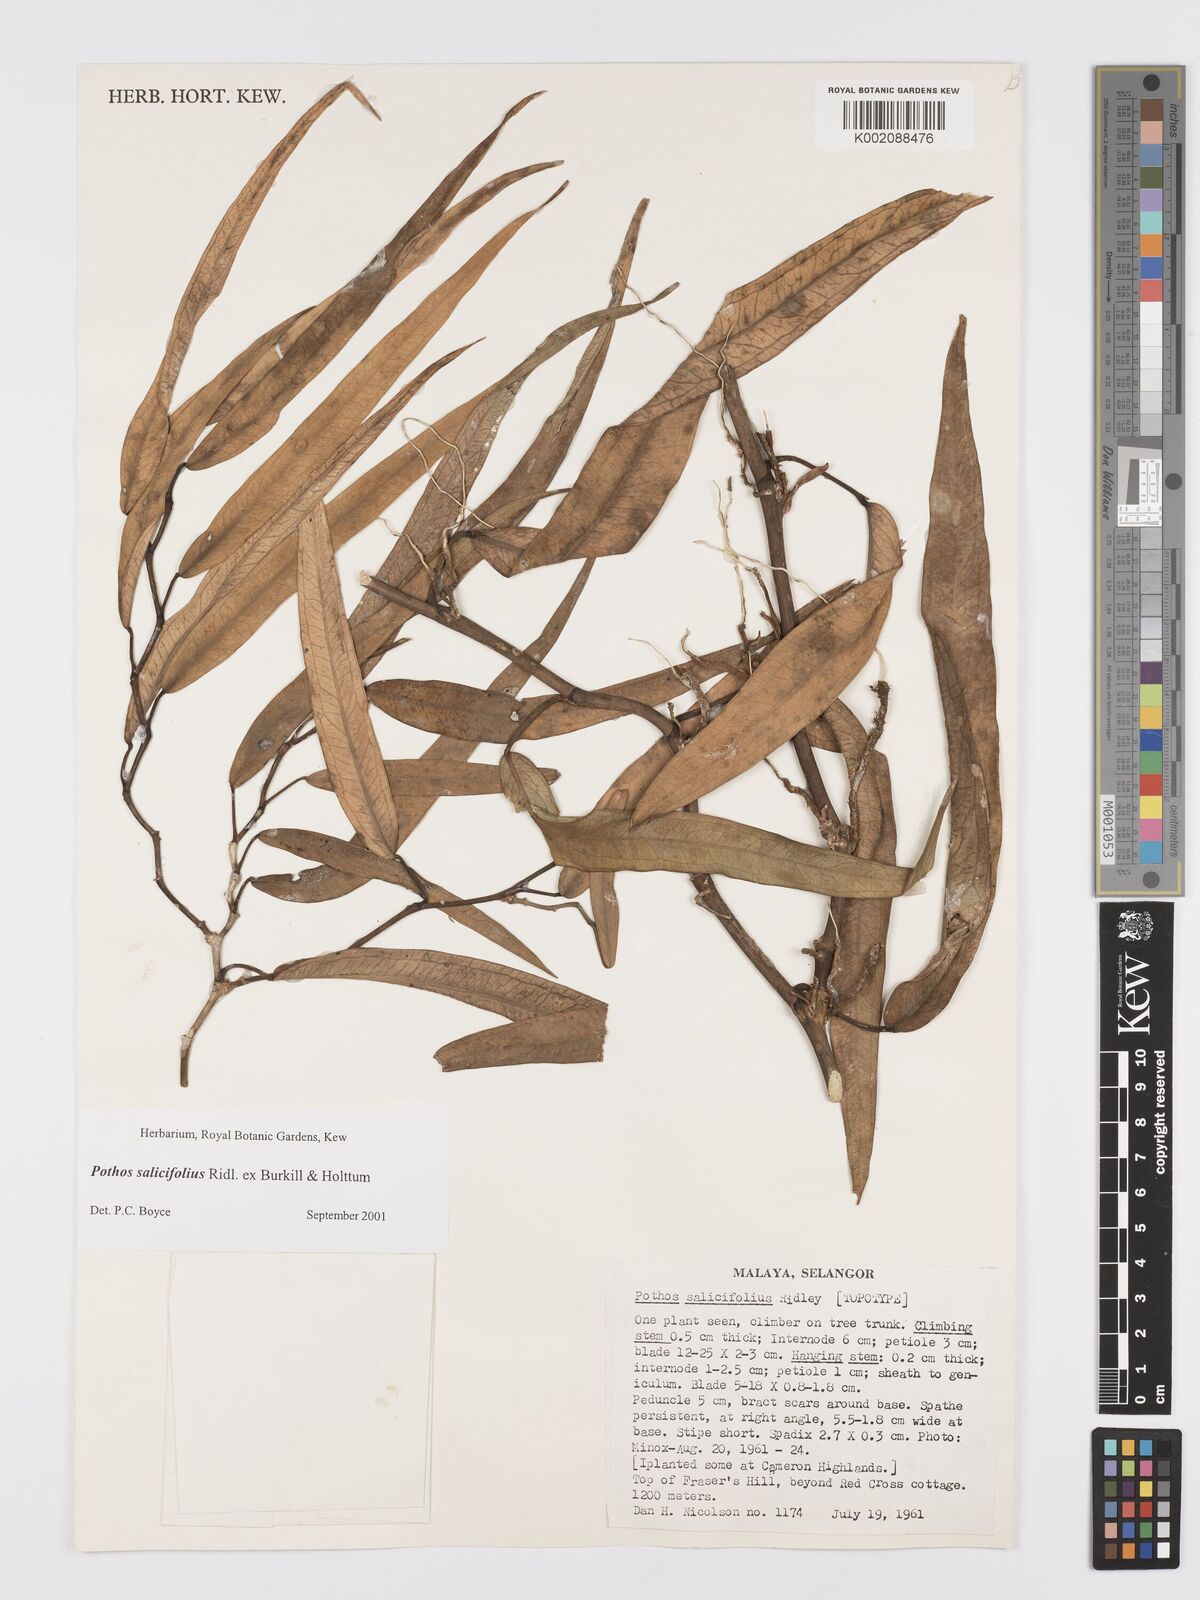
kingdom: Plantae
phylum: Tracheophyta
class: Liliopsida
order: Alismatales
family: Araceae
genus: Pothos
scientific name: Pothos salicifolius
